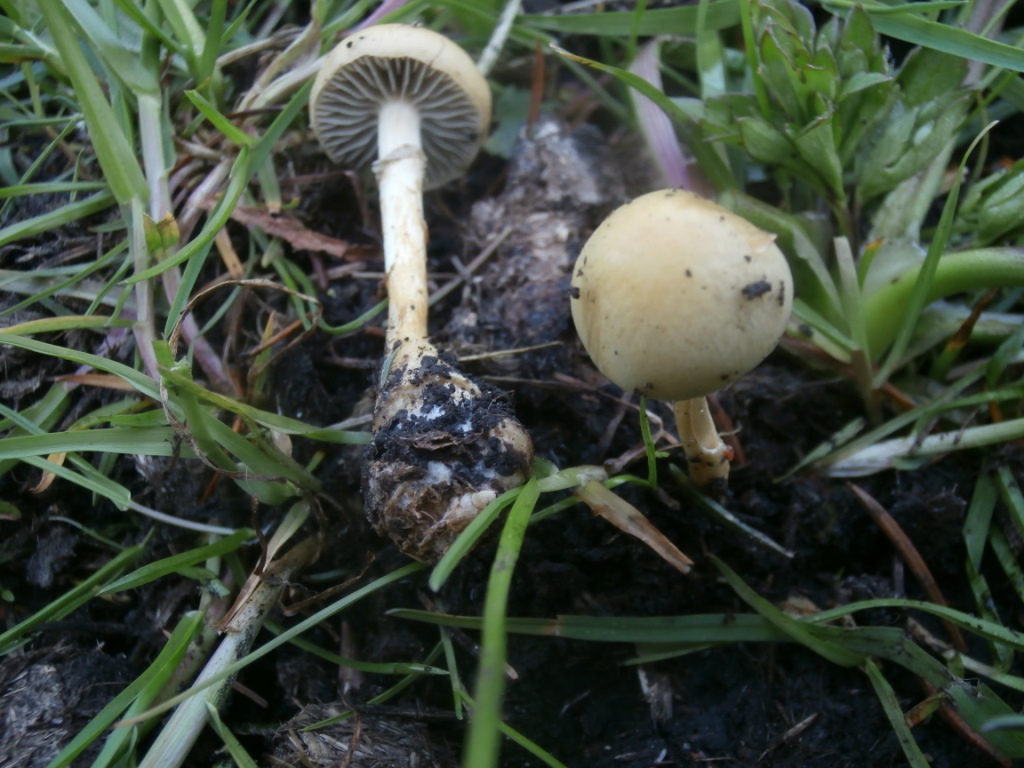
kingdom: Fungi
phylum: Basidiomycota
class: Agaricomycetes
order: Agaricales
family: Strophariaceae
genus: Protostropharia
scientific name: Protostropharia semiglobata
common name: halvkugleformet bredblad
